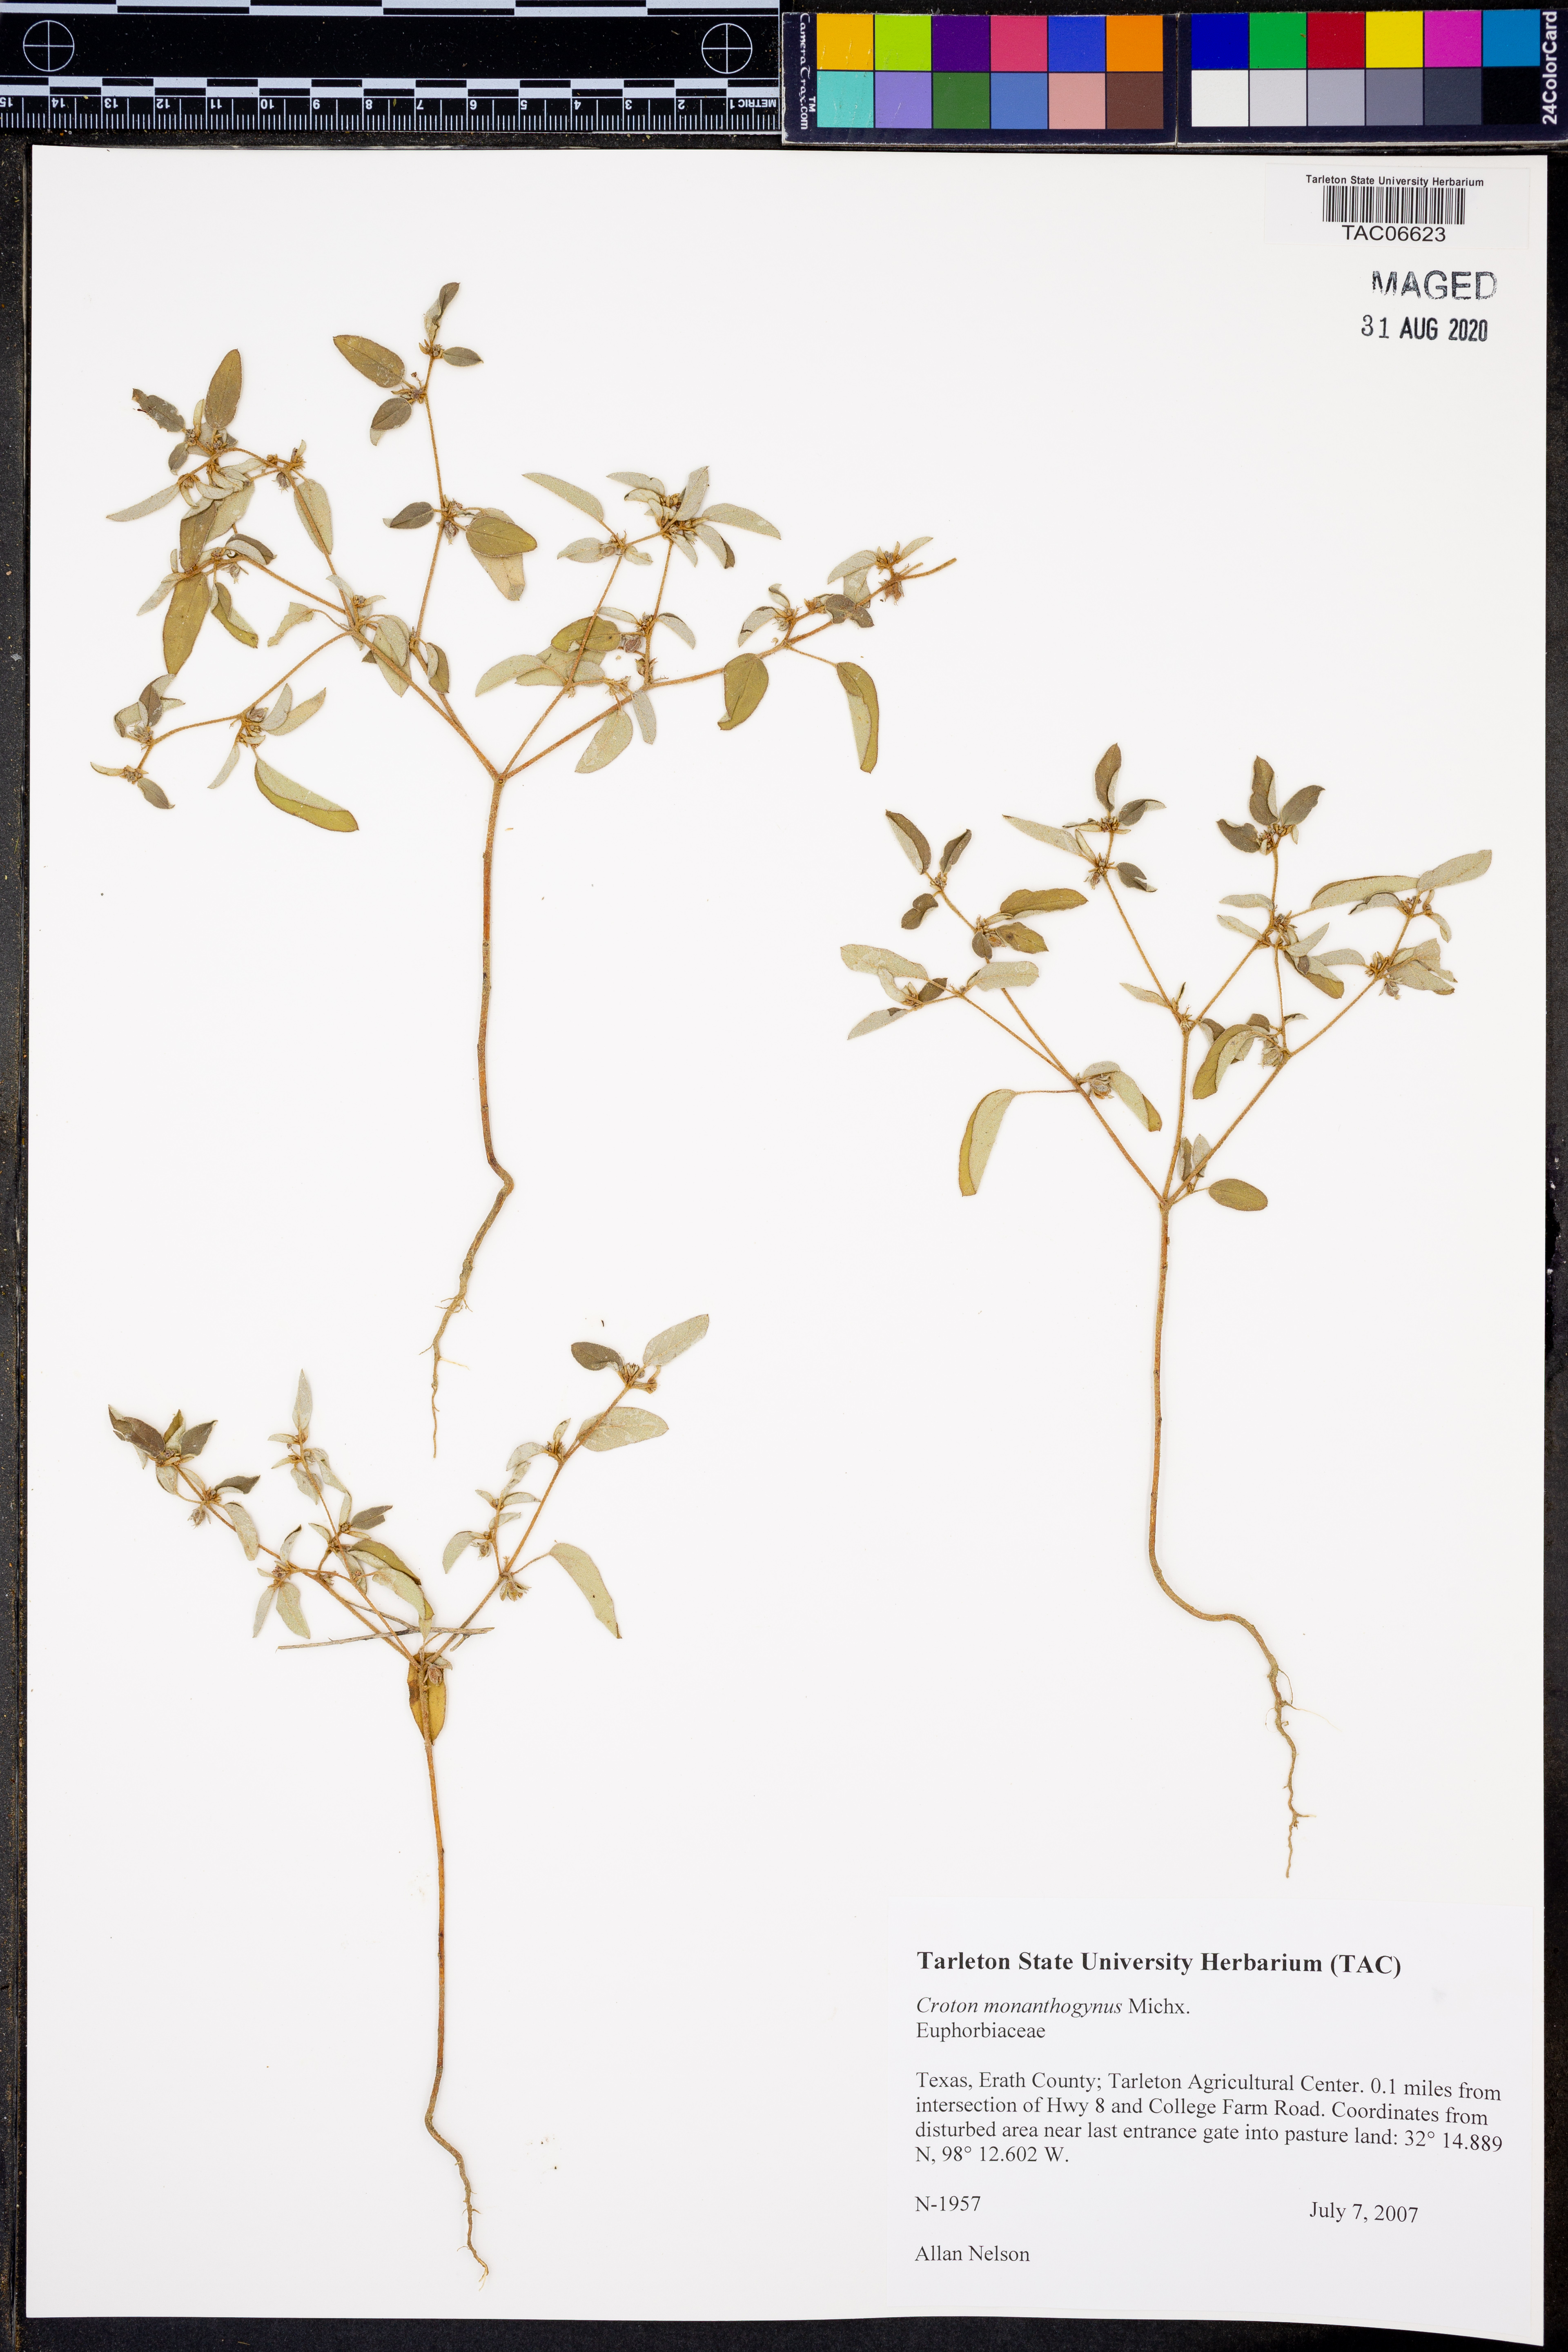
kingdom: Plantae
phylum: Tracheophyta
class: Magnoliopsida
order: Malpighiales
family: Euphorbiaceae
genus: Croton
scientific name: Croton monanthogynus
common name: One-seed croton
